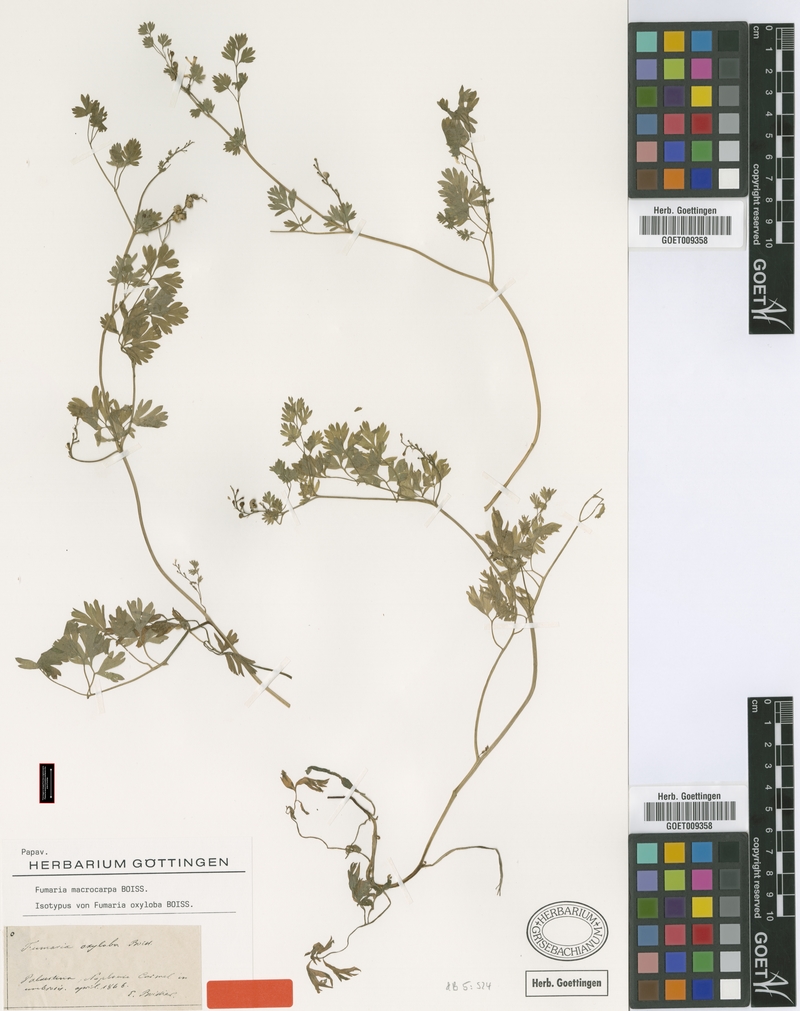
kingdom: Plantae
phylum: Tracheophyta
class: Magnoliopsida
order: Ranunculales
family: Papaveraceae
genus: Fumaria
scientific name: Fumaria schleicheri
